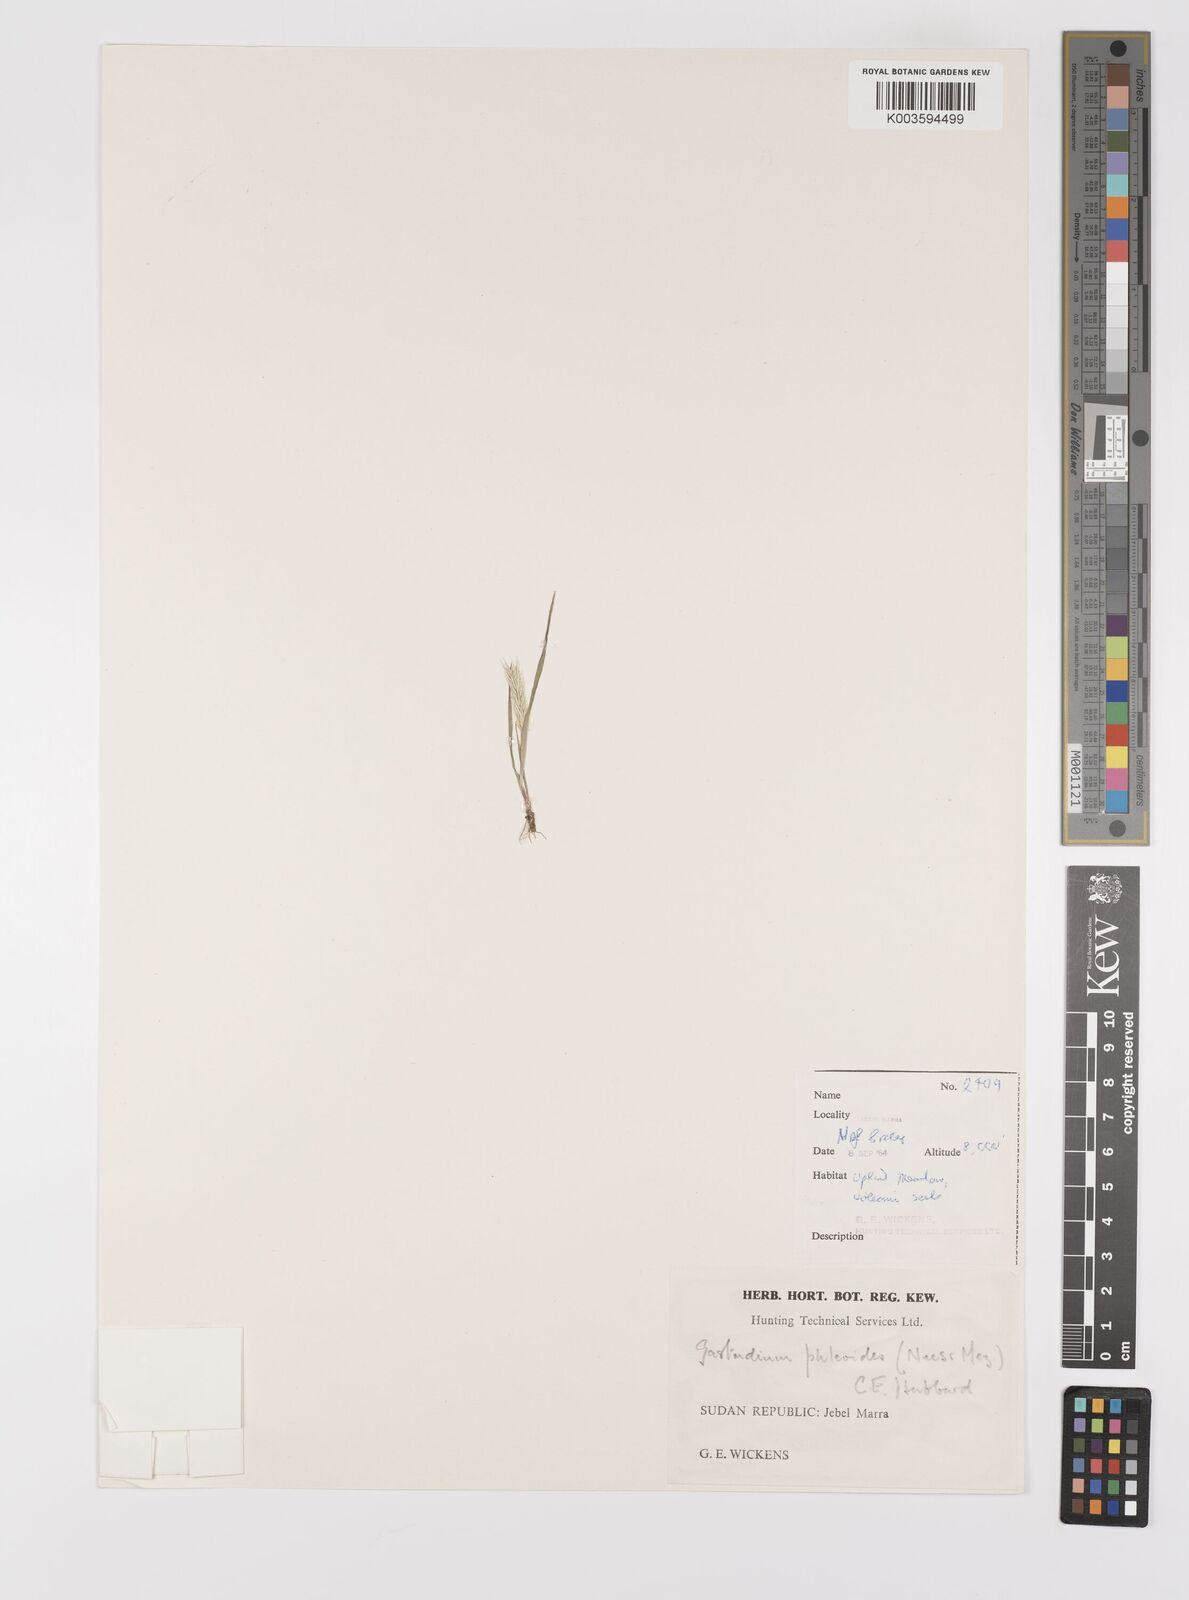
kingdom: Plantae
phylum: Tracheophyta
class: Liliopsida
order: Poales
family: Poaceae
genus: Gastridium
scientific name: Gastridium phleoides
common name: Nit grass
